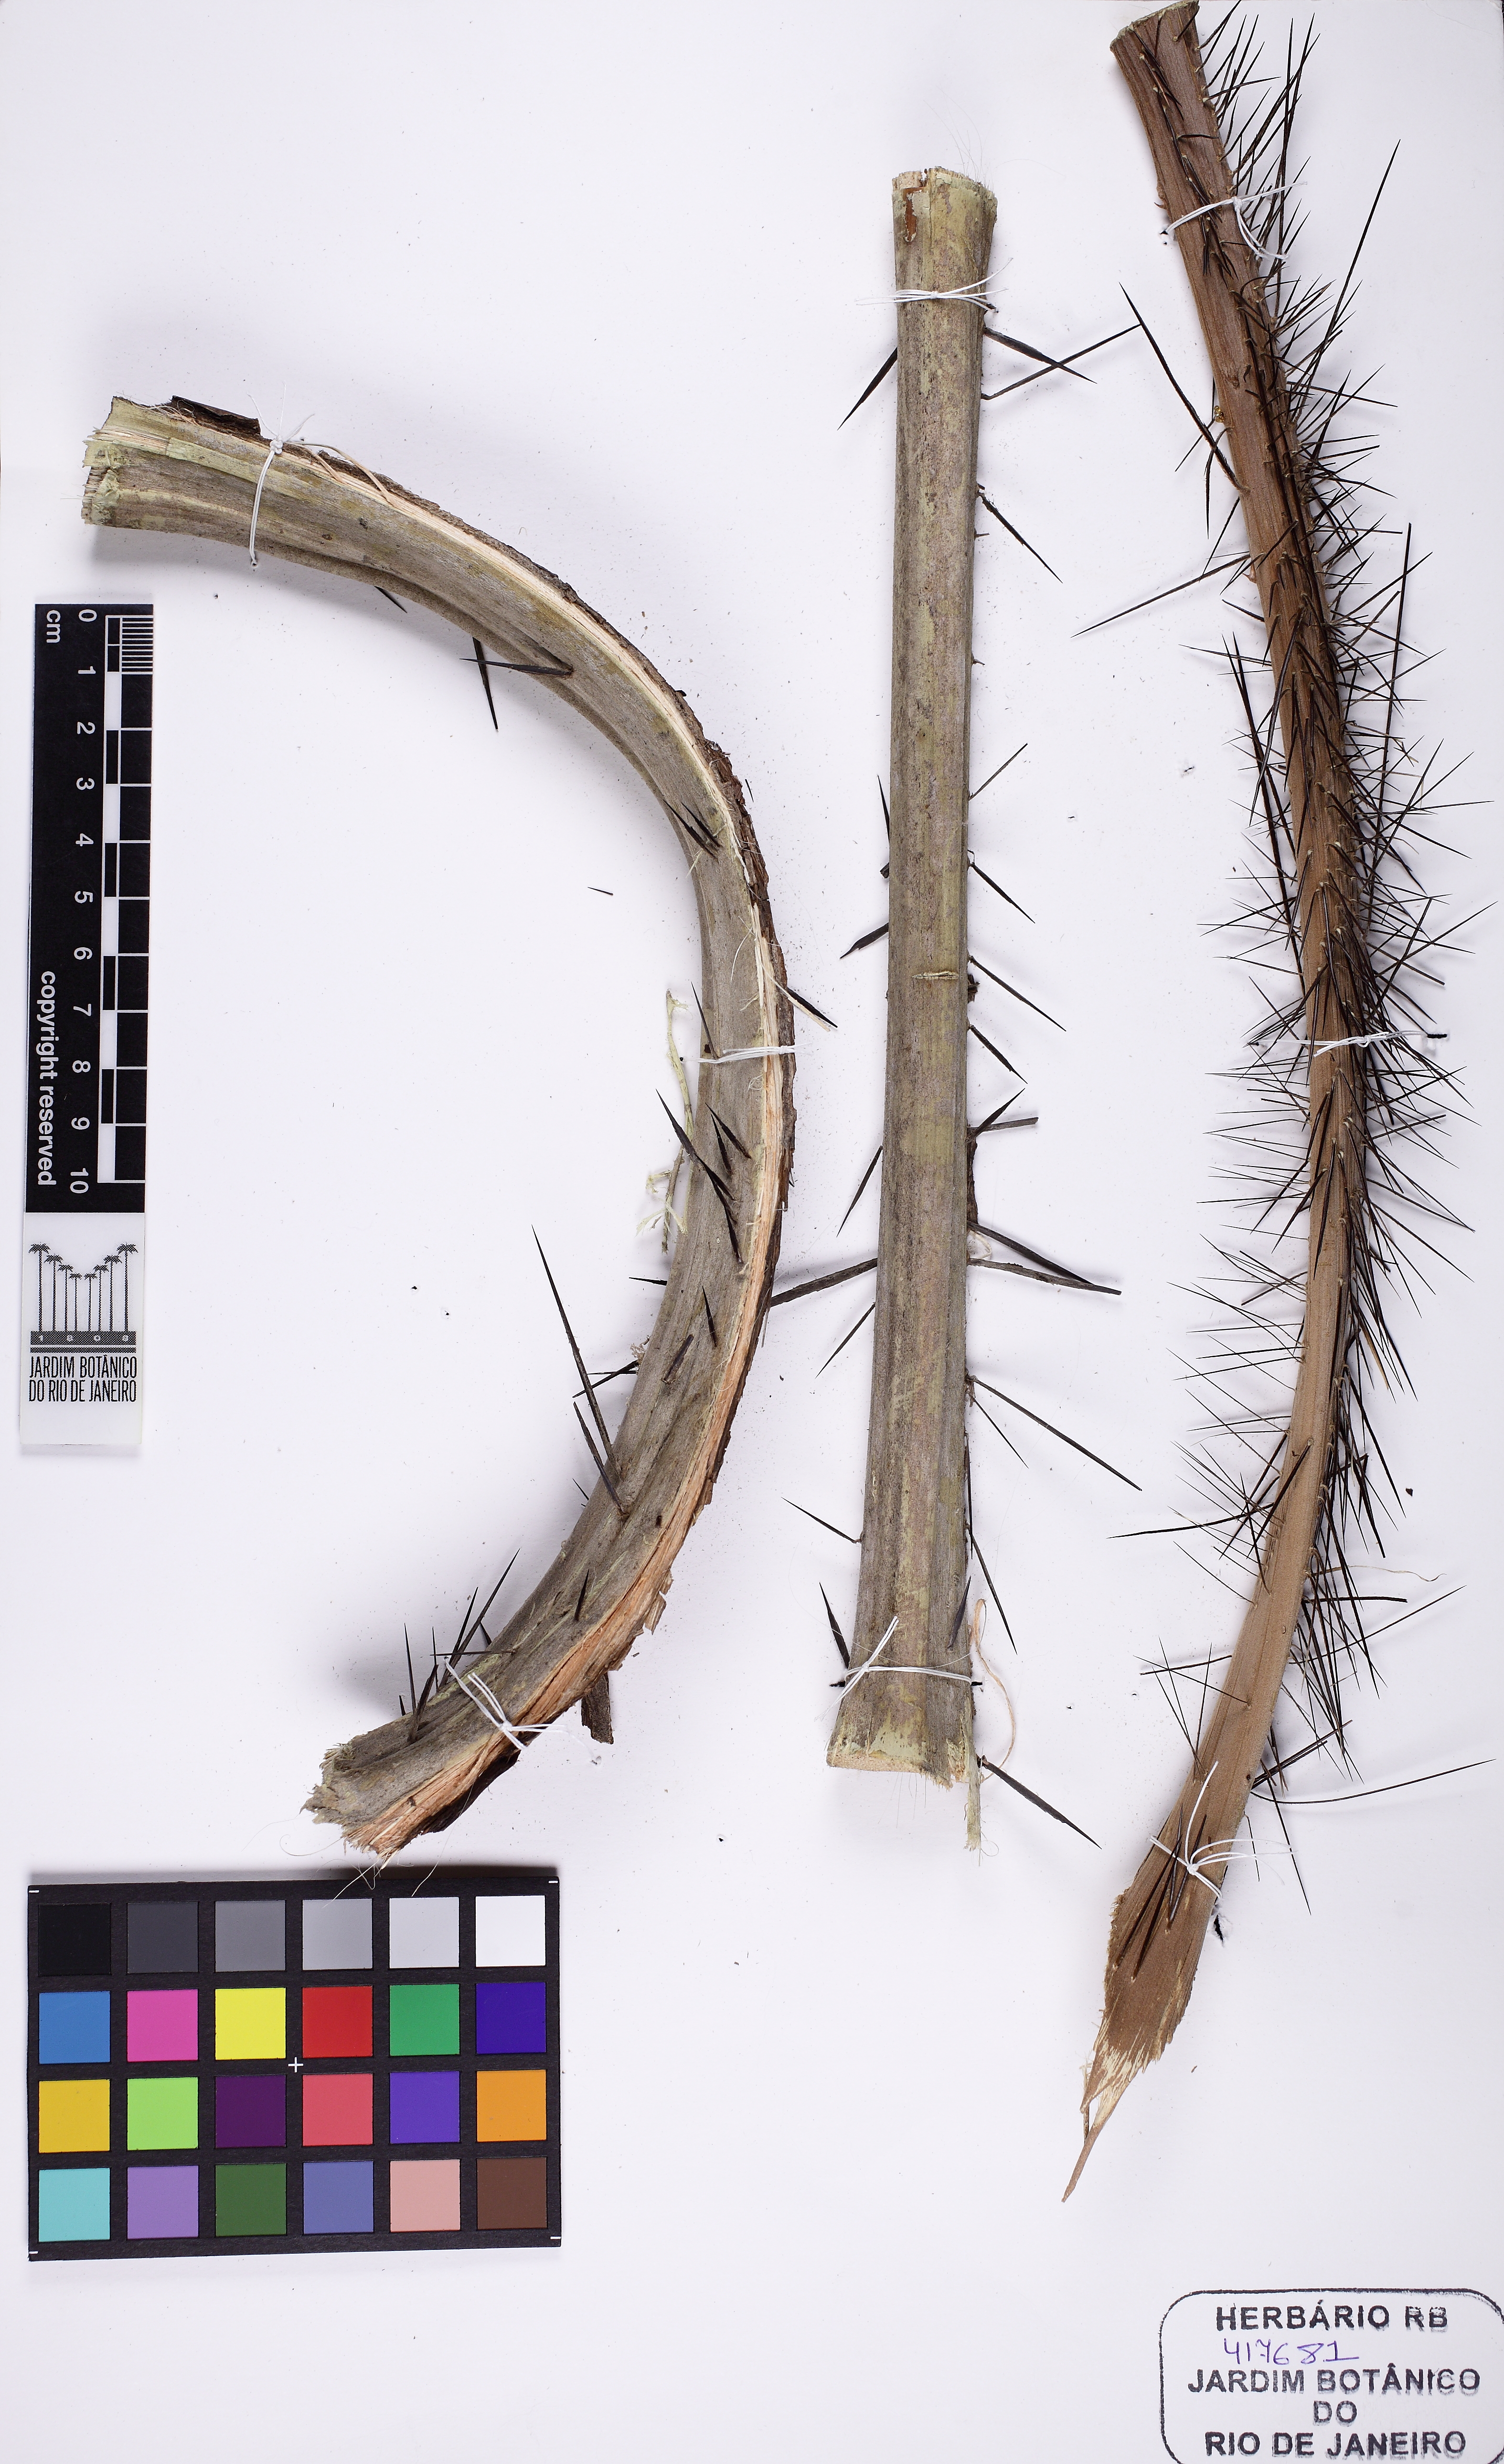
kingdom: Plantae
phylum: Tracheophyta
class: Liliopsida
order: Arecales
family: Arecaceae
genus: Aiphanes
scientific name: Aiphanes minima
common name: Grigri
